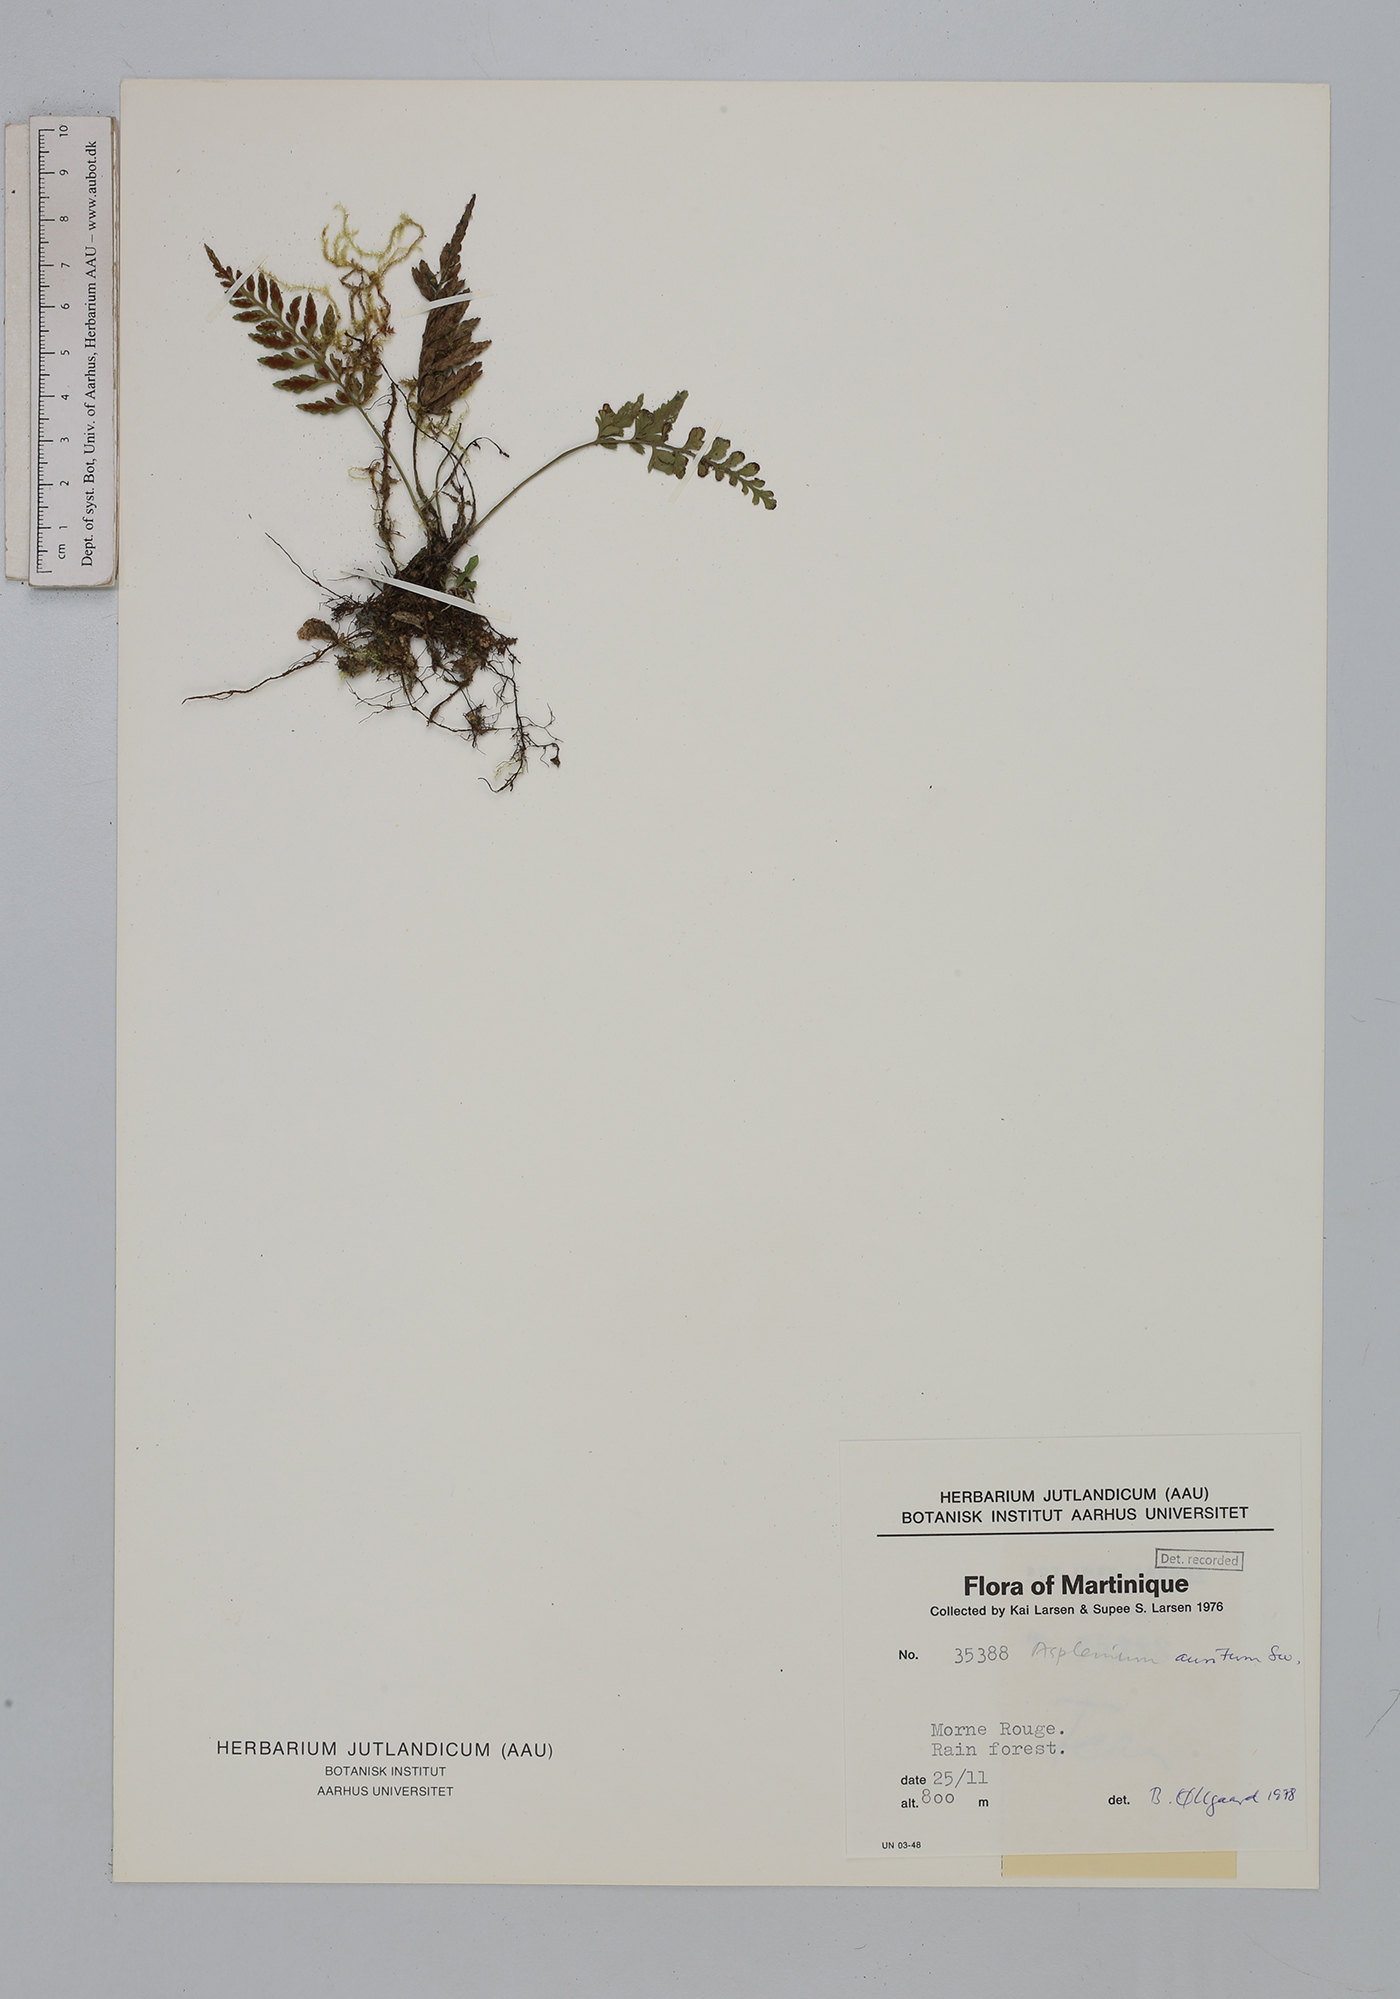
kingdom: Plantae
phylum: Tracheophyta
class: Polypodiopsida
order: Polypodiales
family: Aspleniaceae
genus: Asplenium
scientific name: Asplenium auritum
